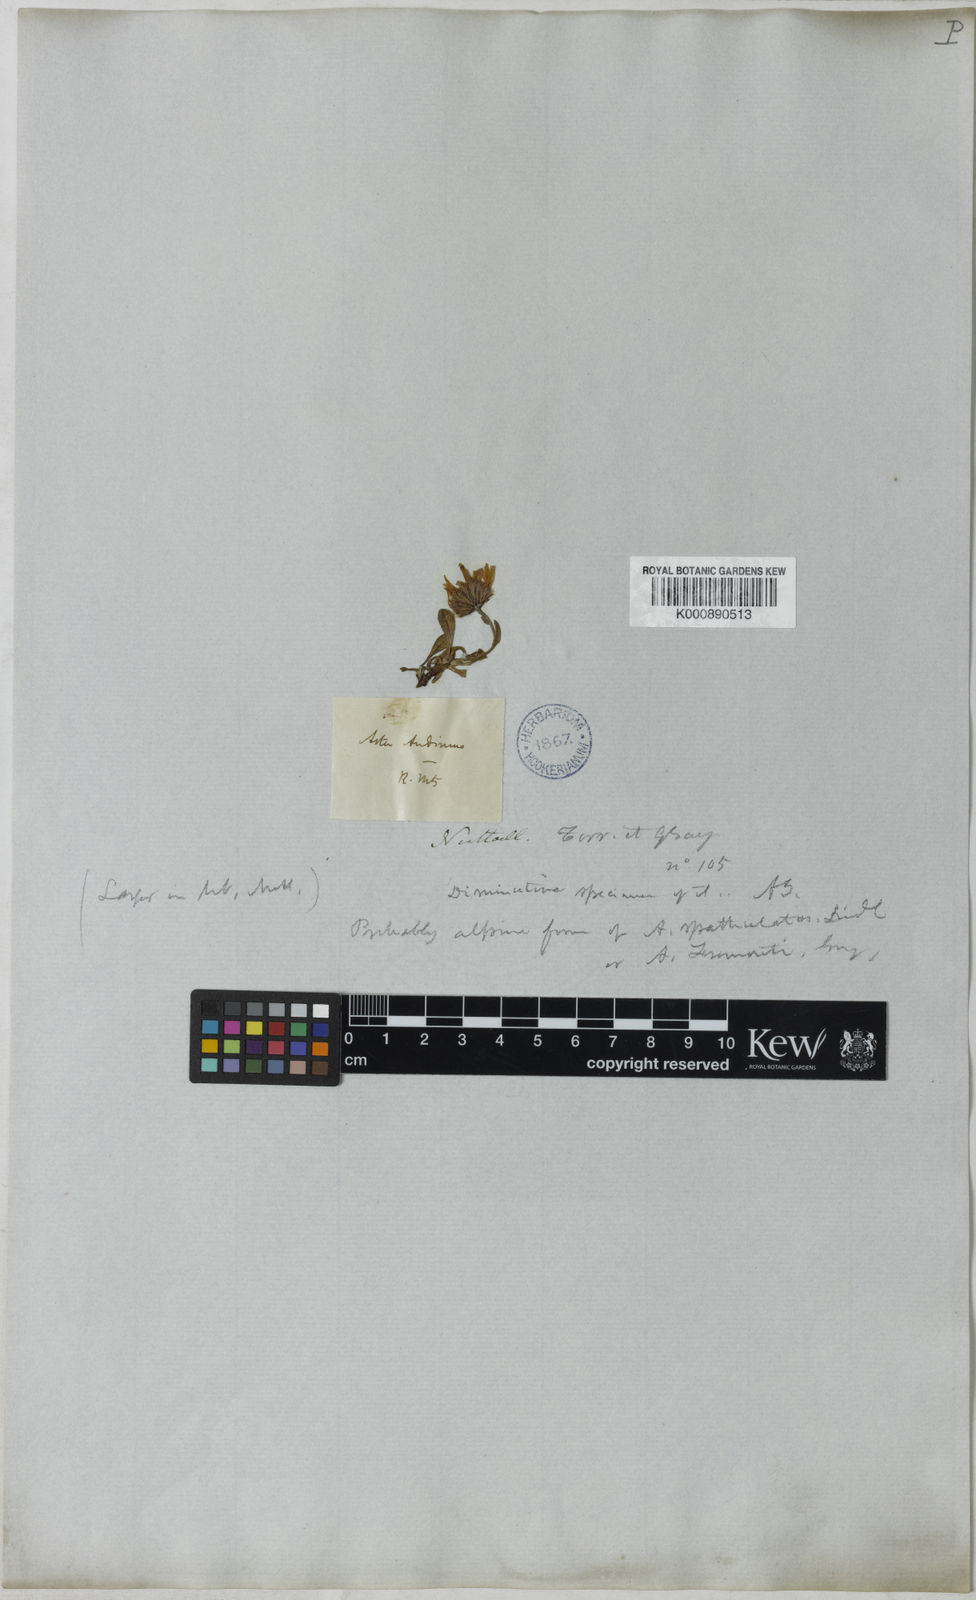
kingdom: Plantae
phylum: Tracheophyta
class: Magnoliopsida
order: Asterales
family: Asteraceae
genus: Aster
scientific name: Aster
